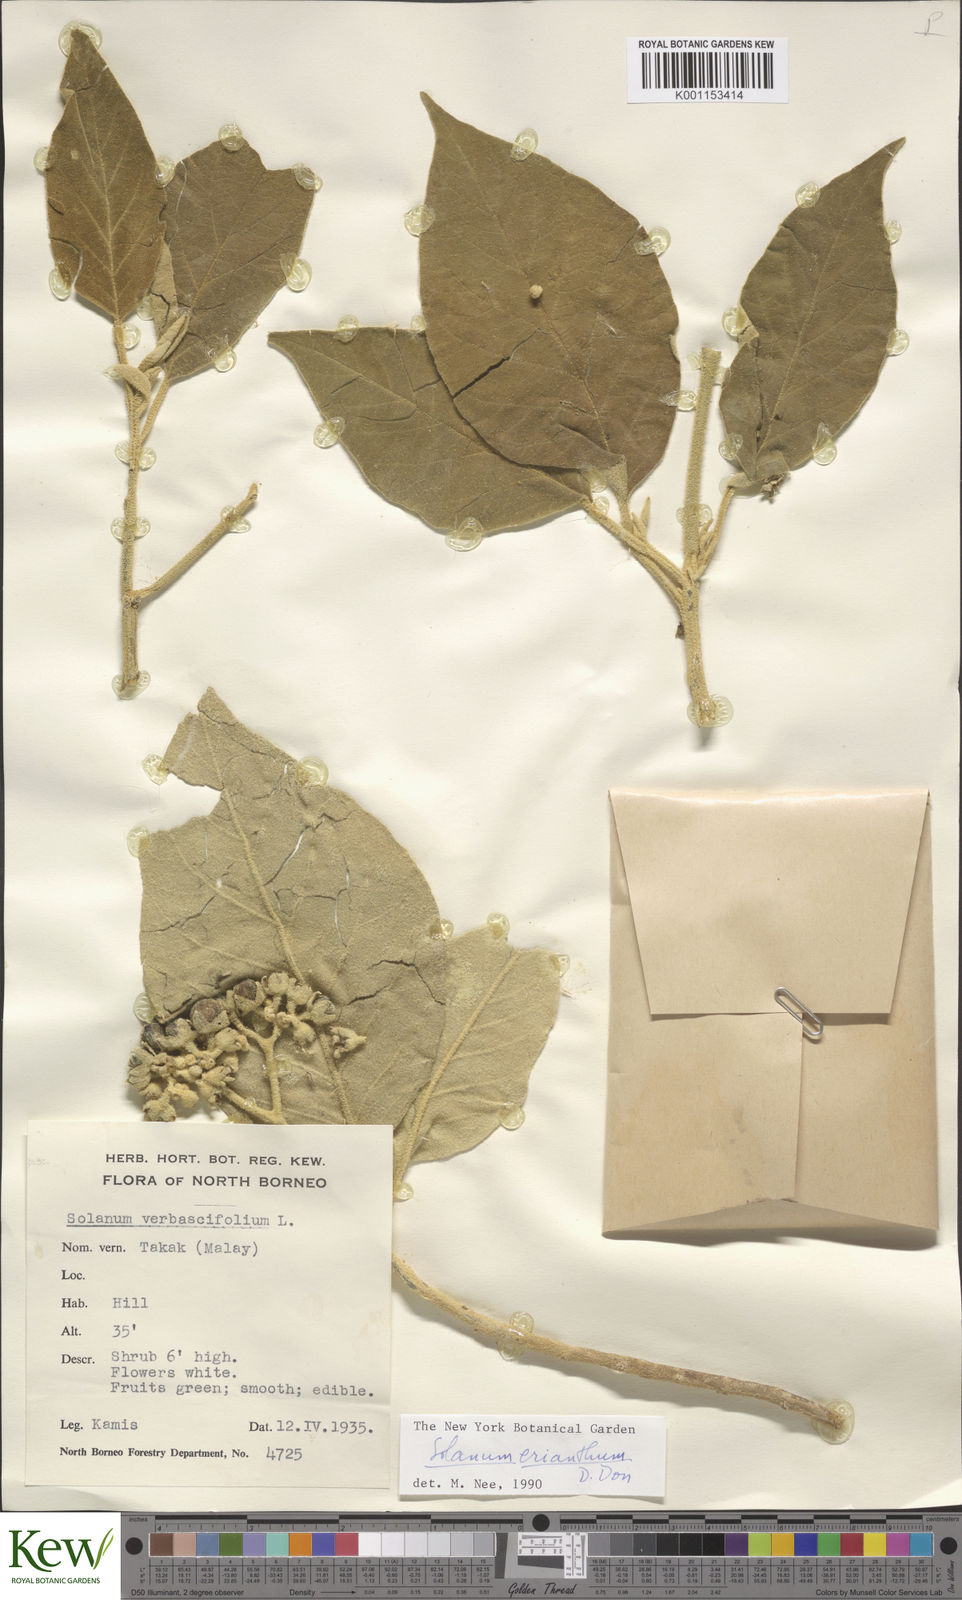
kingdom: Plantae
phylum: Tracheophyta
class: Magnoliopsida
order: Solanales
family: Solanaceae
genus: Solanum
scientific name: Solanum erianthum
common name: Tobacco-tree
